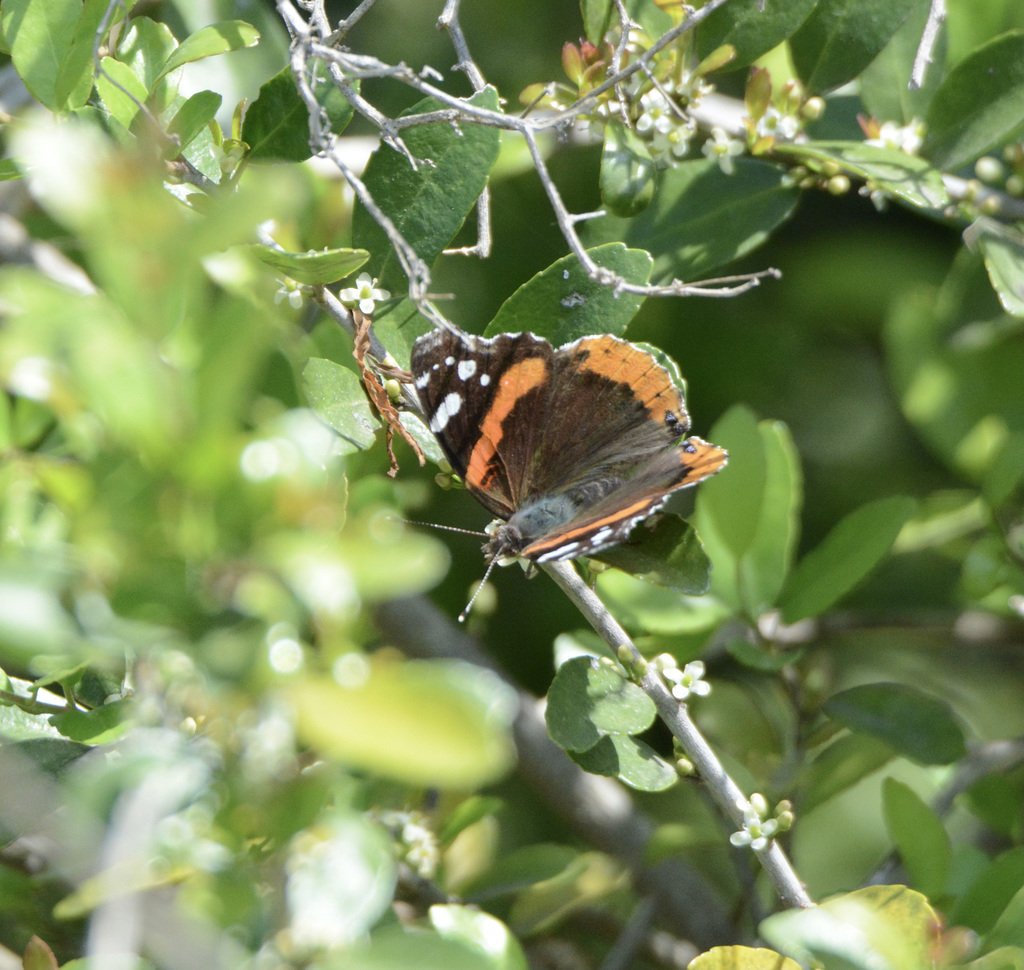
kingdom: Animalia
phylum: Arthropoda
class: Insecta
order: Lepidoptera
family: Nymphalidae
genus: Vanessa
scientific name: Vanessa atalanta
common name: Red Admiral
